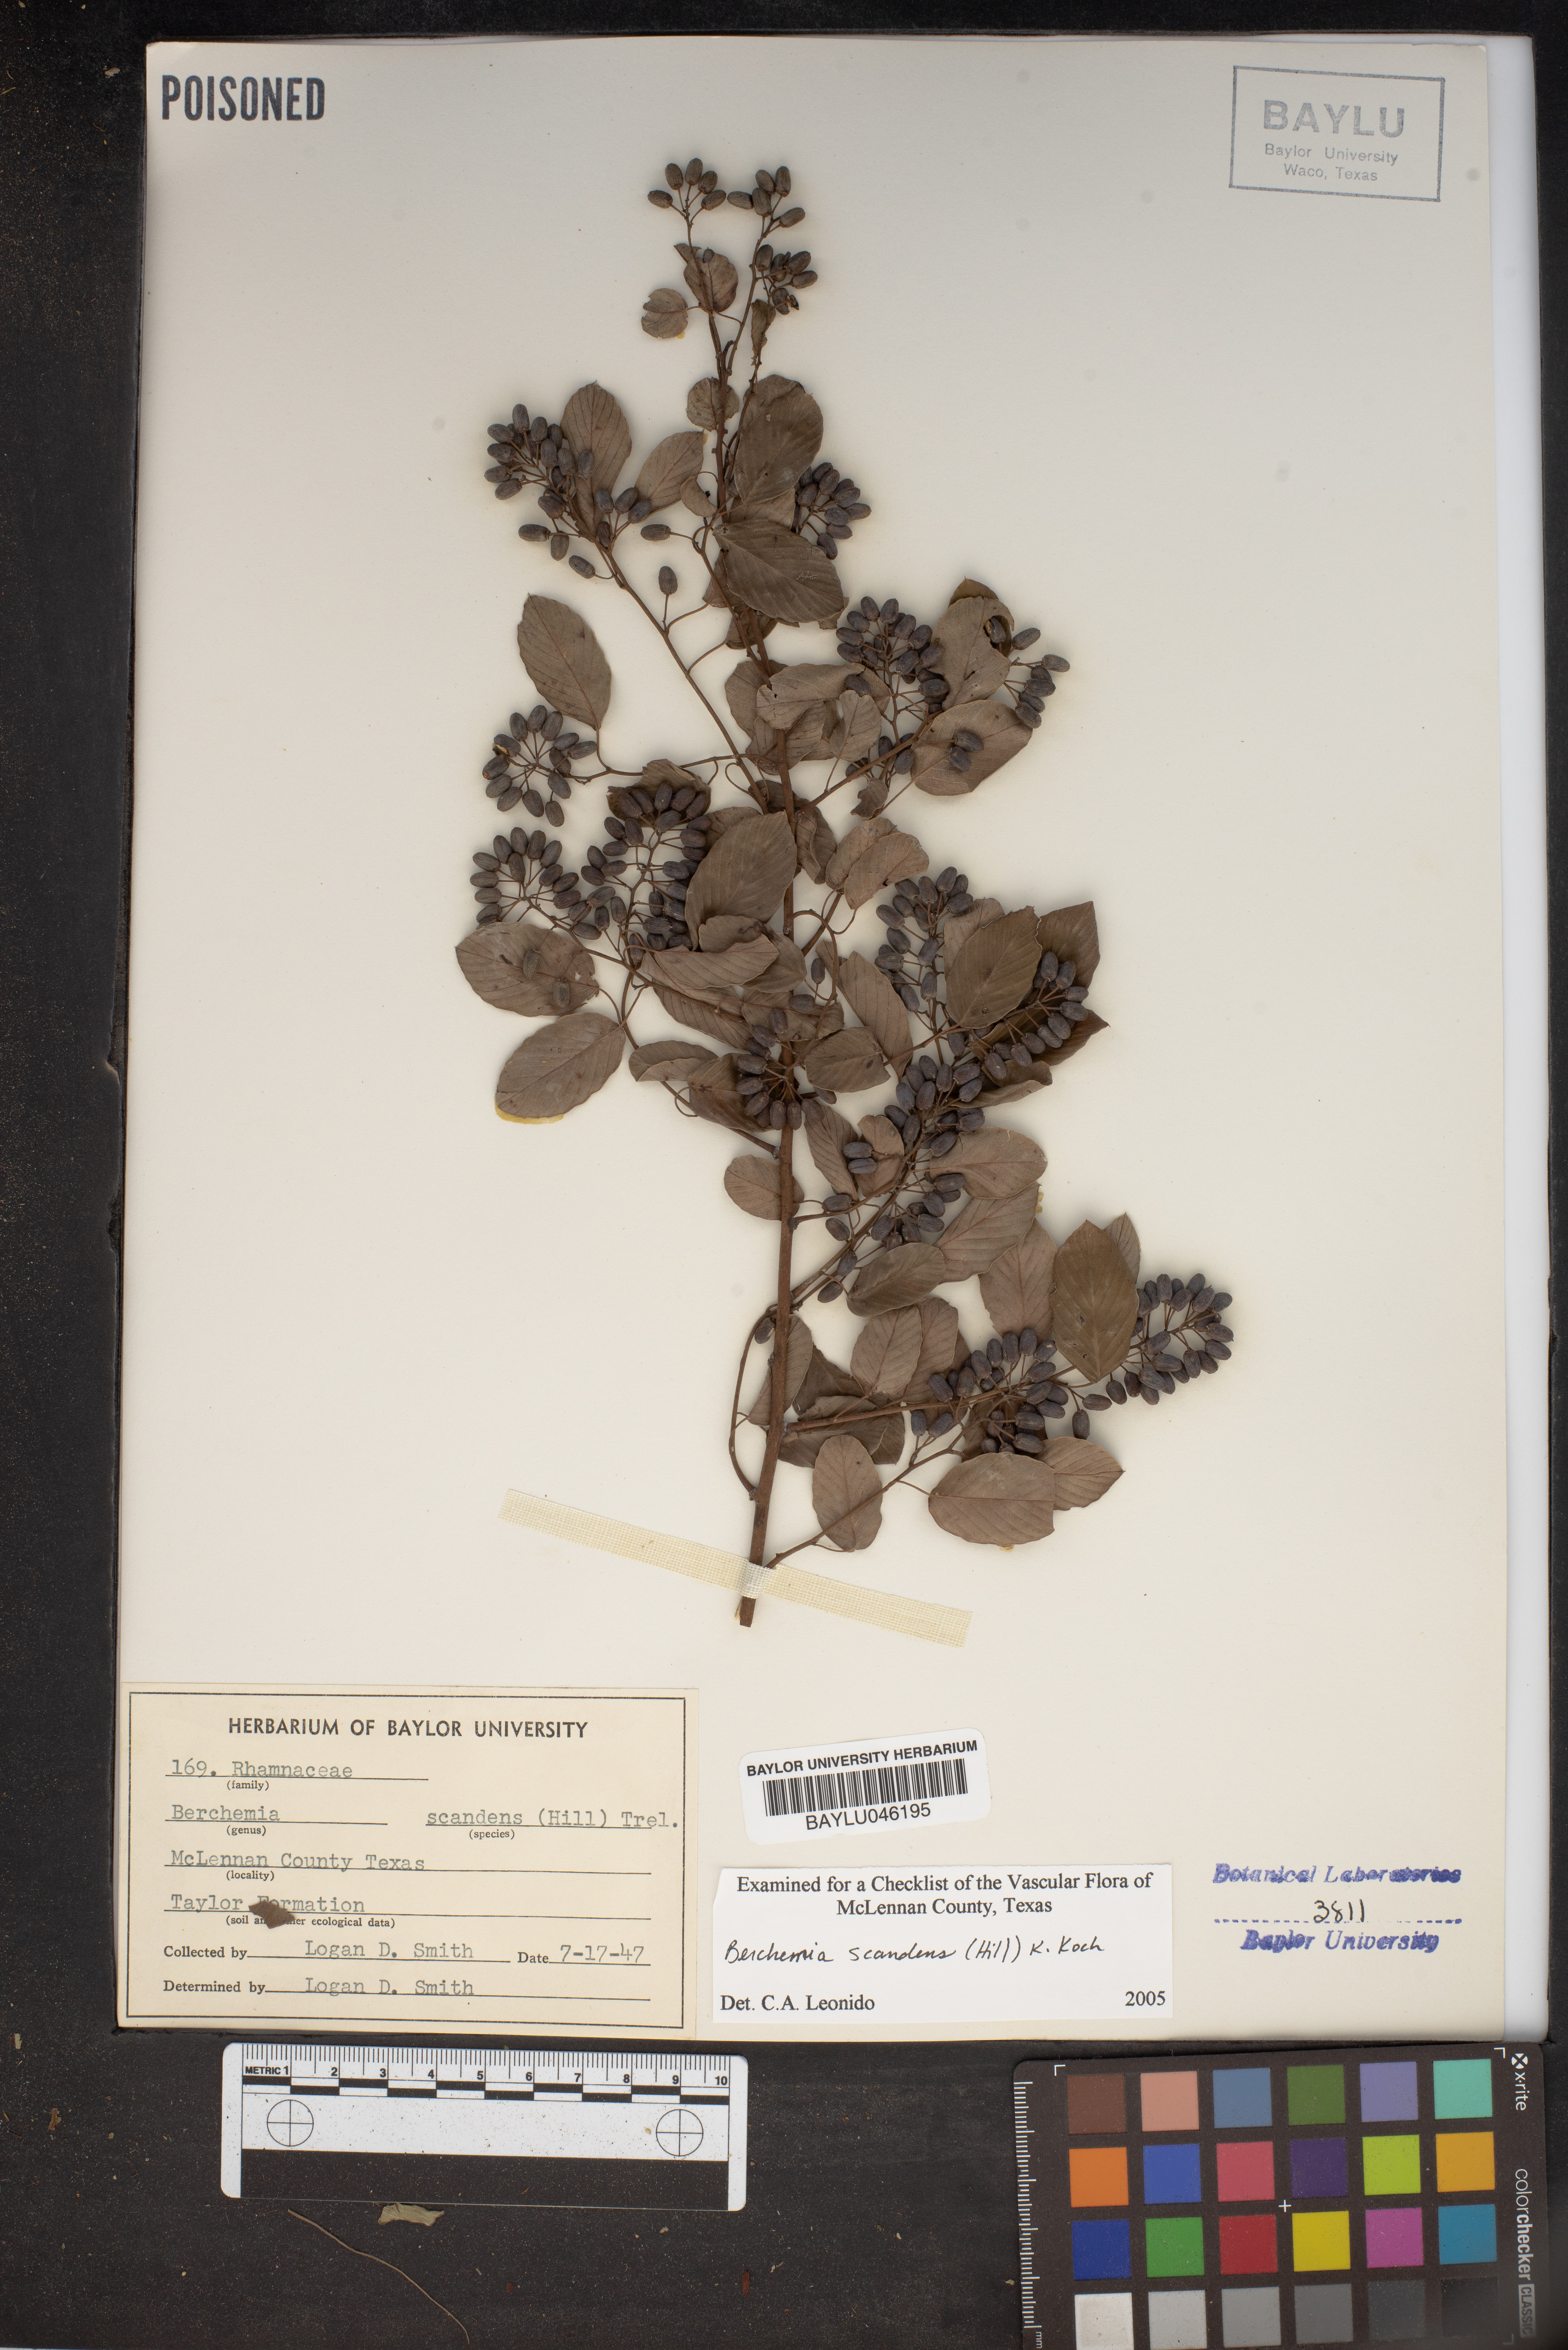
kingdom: Plantae
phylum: Tracheophyta
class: Magnoliopsida
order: Rosales
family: Rhamnaceae
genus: Berchemia
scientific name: Berchemia scandens
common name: Supplejack
